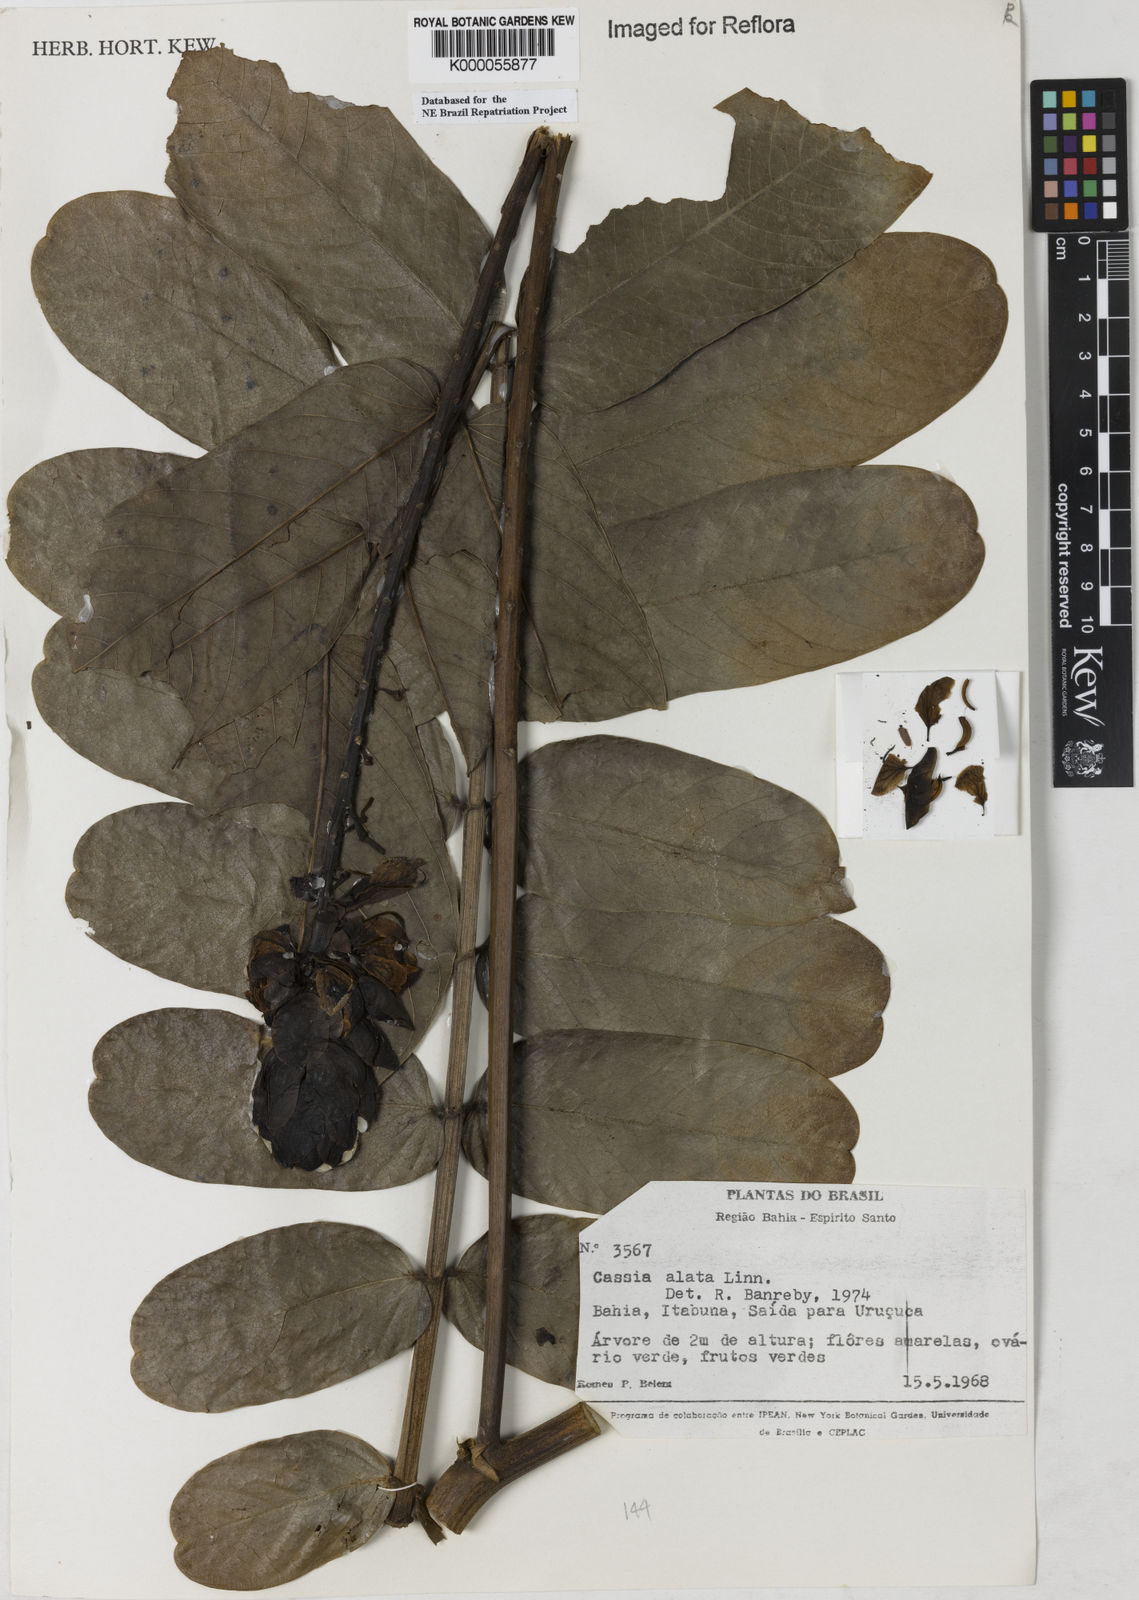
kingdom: Plantae
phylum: Tracheophyta
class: Magnoliopsida
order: Fabales
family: Fabaceae
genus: Senna
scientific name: Senna alata
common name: Emperor's candlesticks
